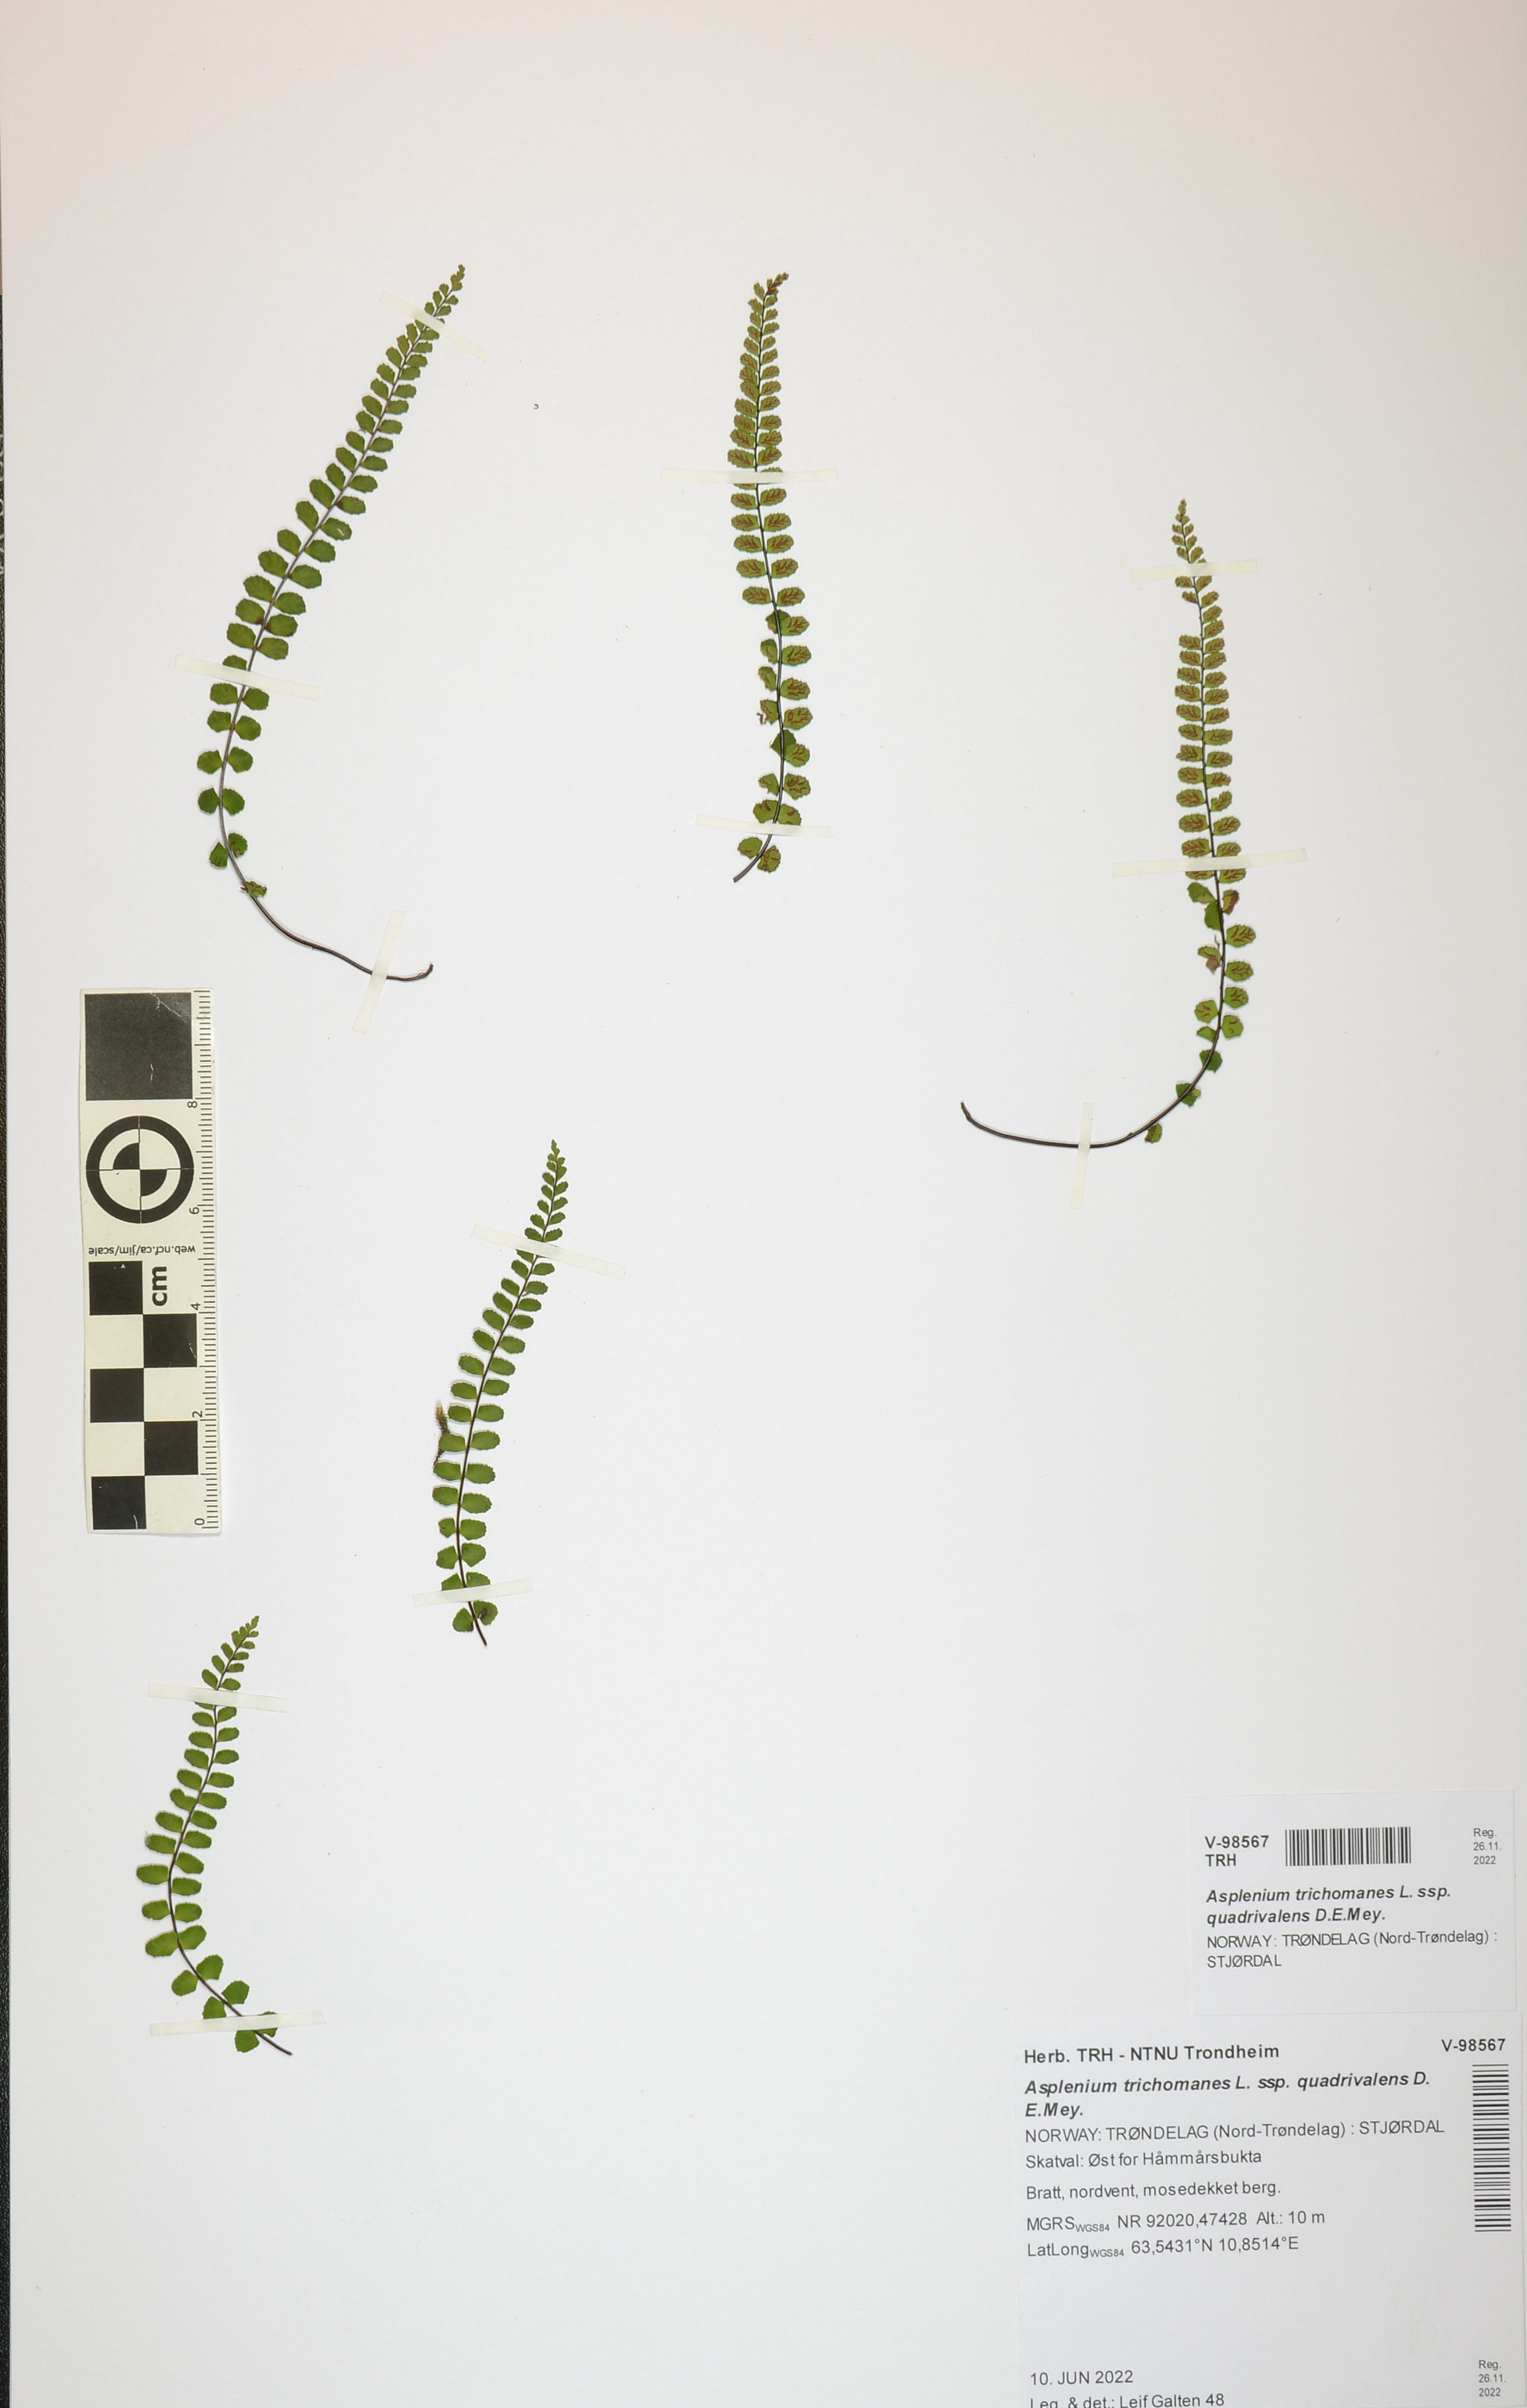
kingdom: Plantae
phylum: Tracheophyta
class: Polypodiopsida
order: Polypodiales
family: Aspleniaceae
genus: Asplenium
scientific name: Asplenium quadrivalens
